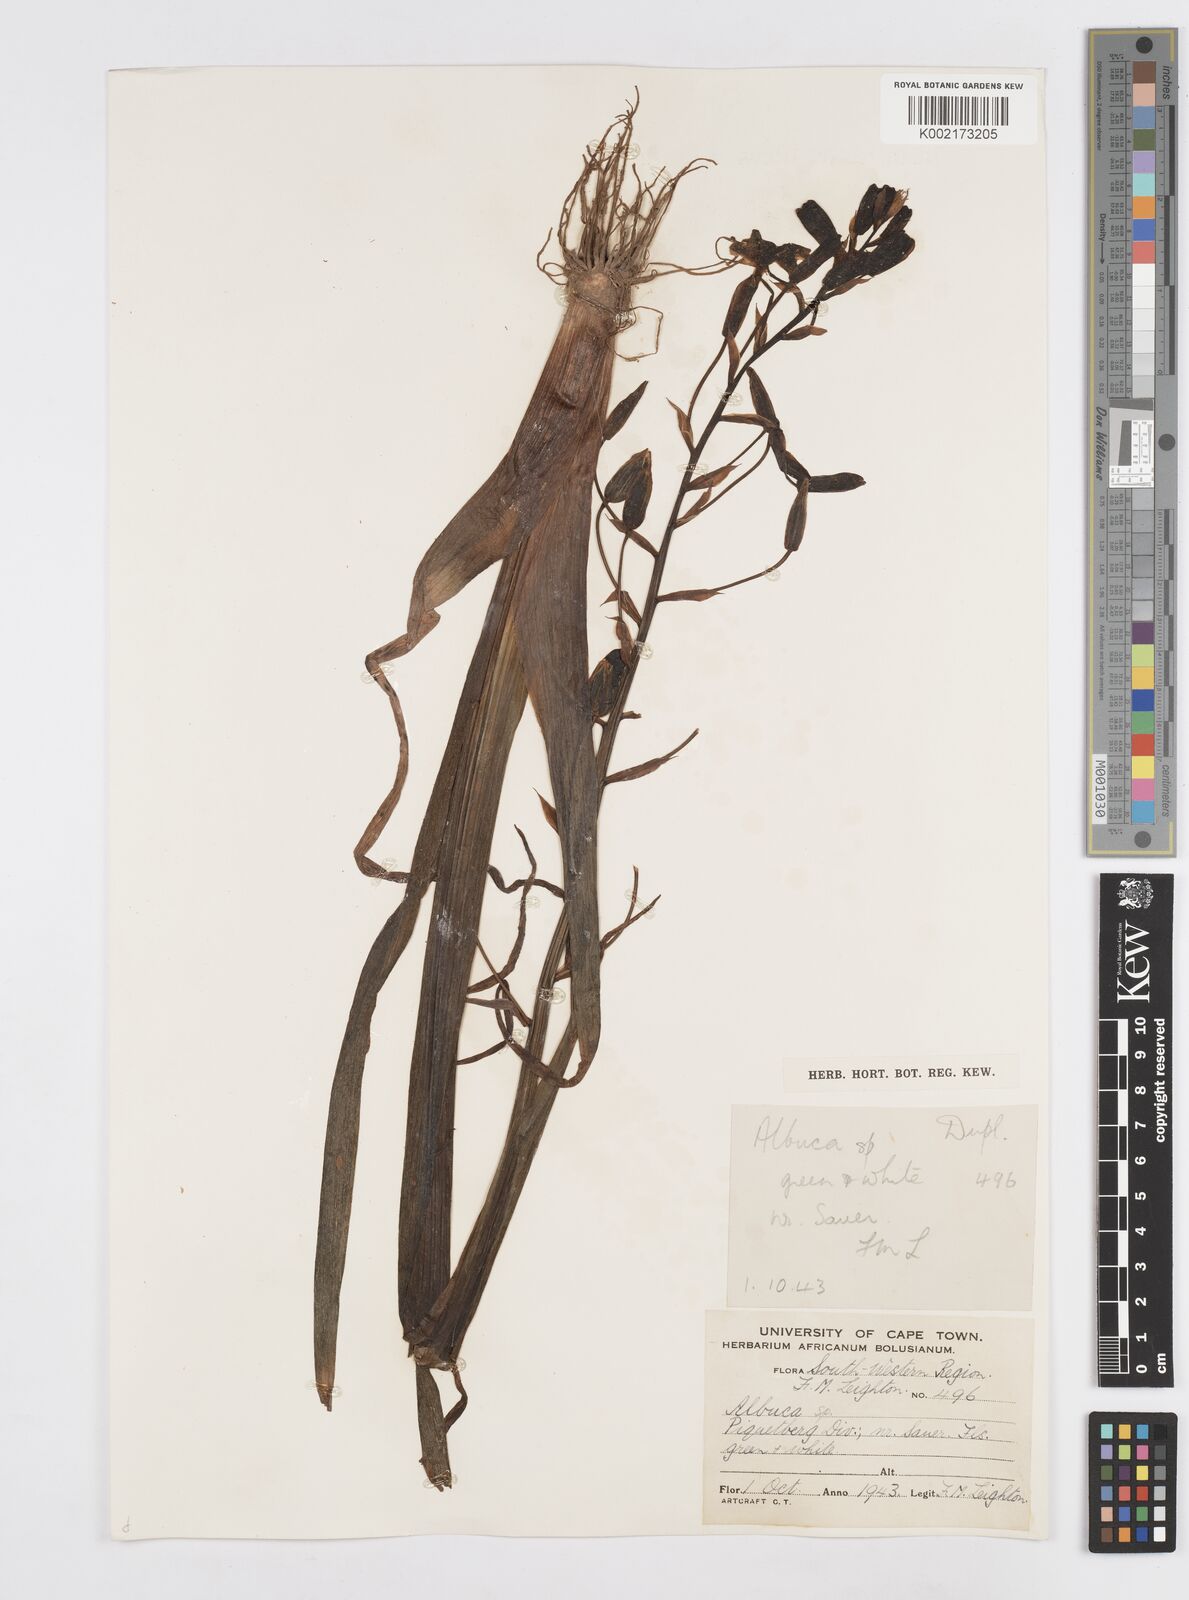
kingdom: Plantae
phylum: Tracheophyta
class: Liliopsida
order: Asparagales
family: Asparagaceae
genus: Albuca
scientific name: Albuca
